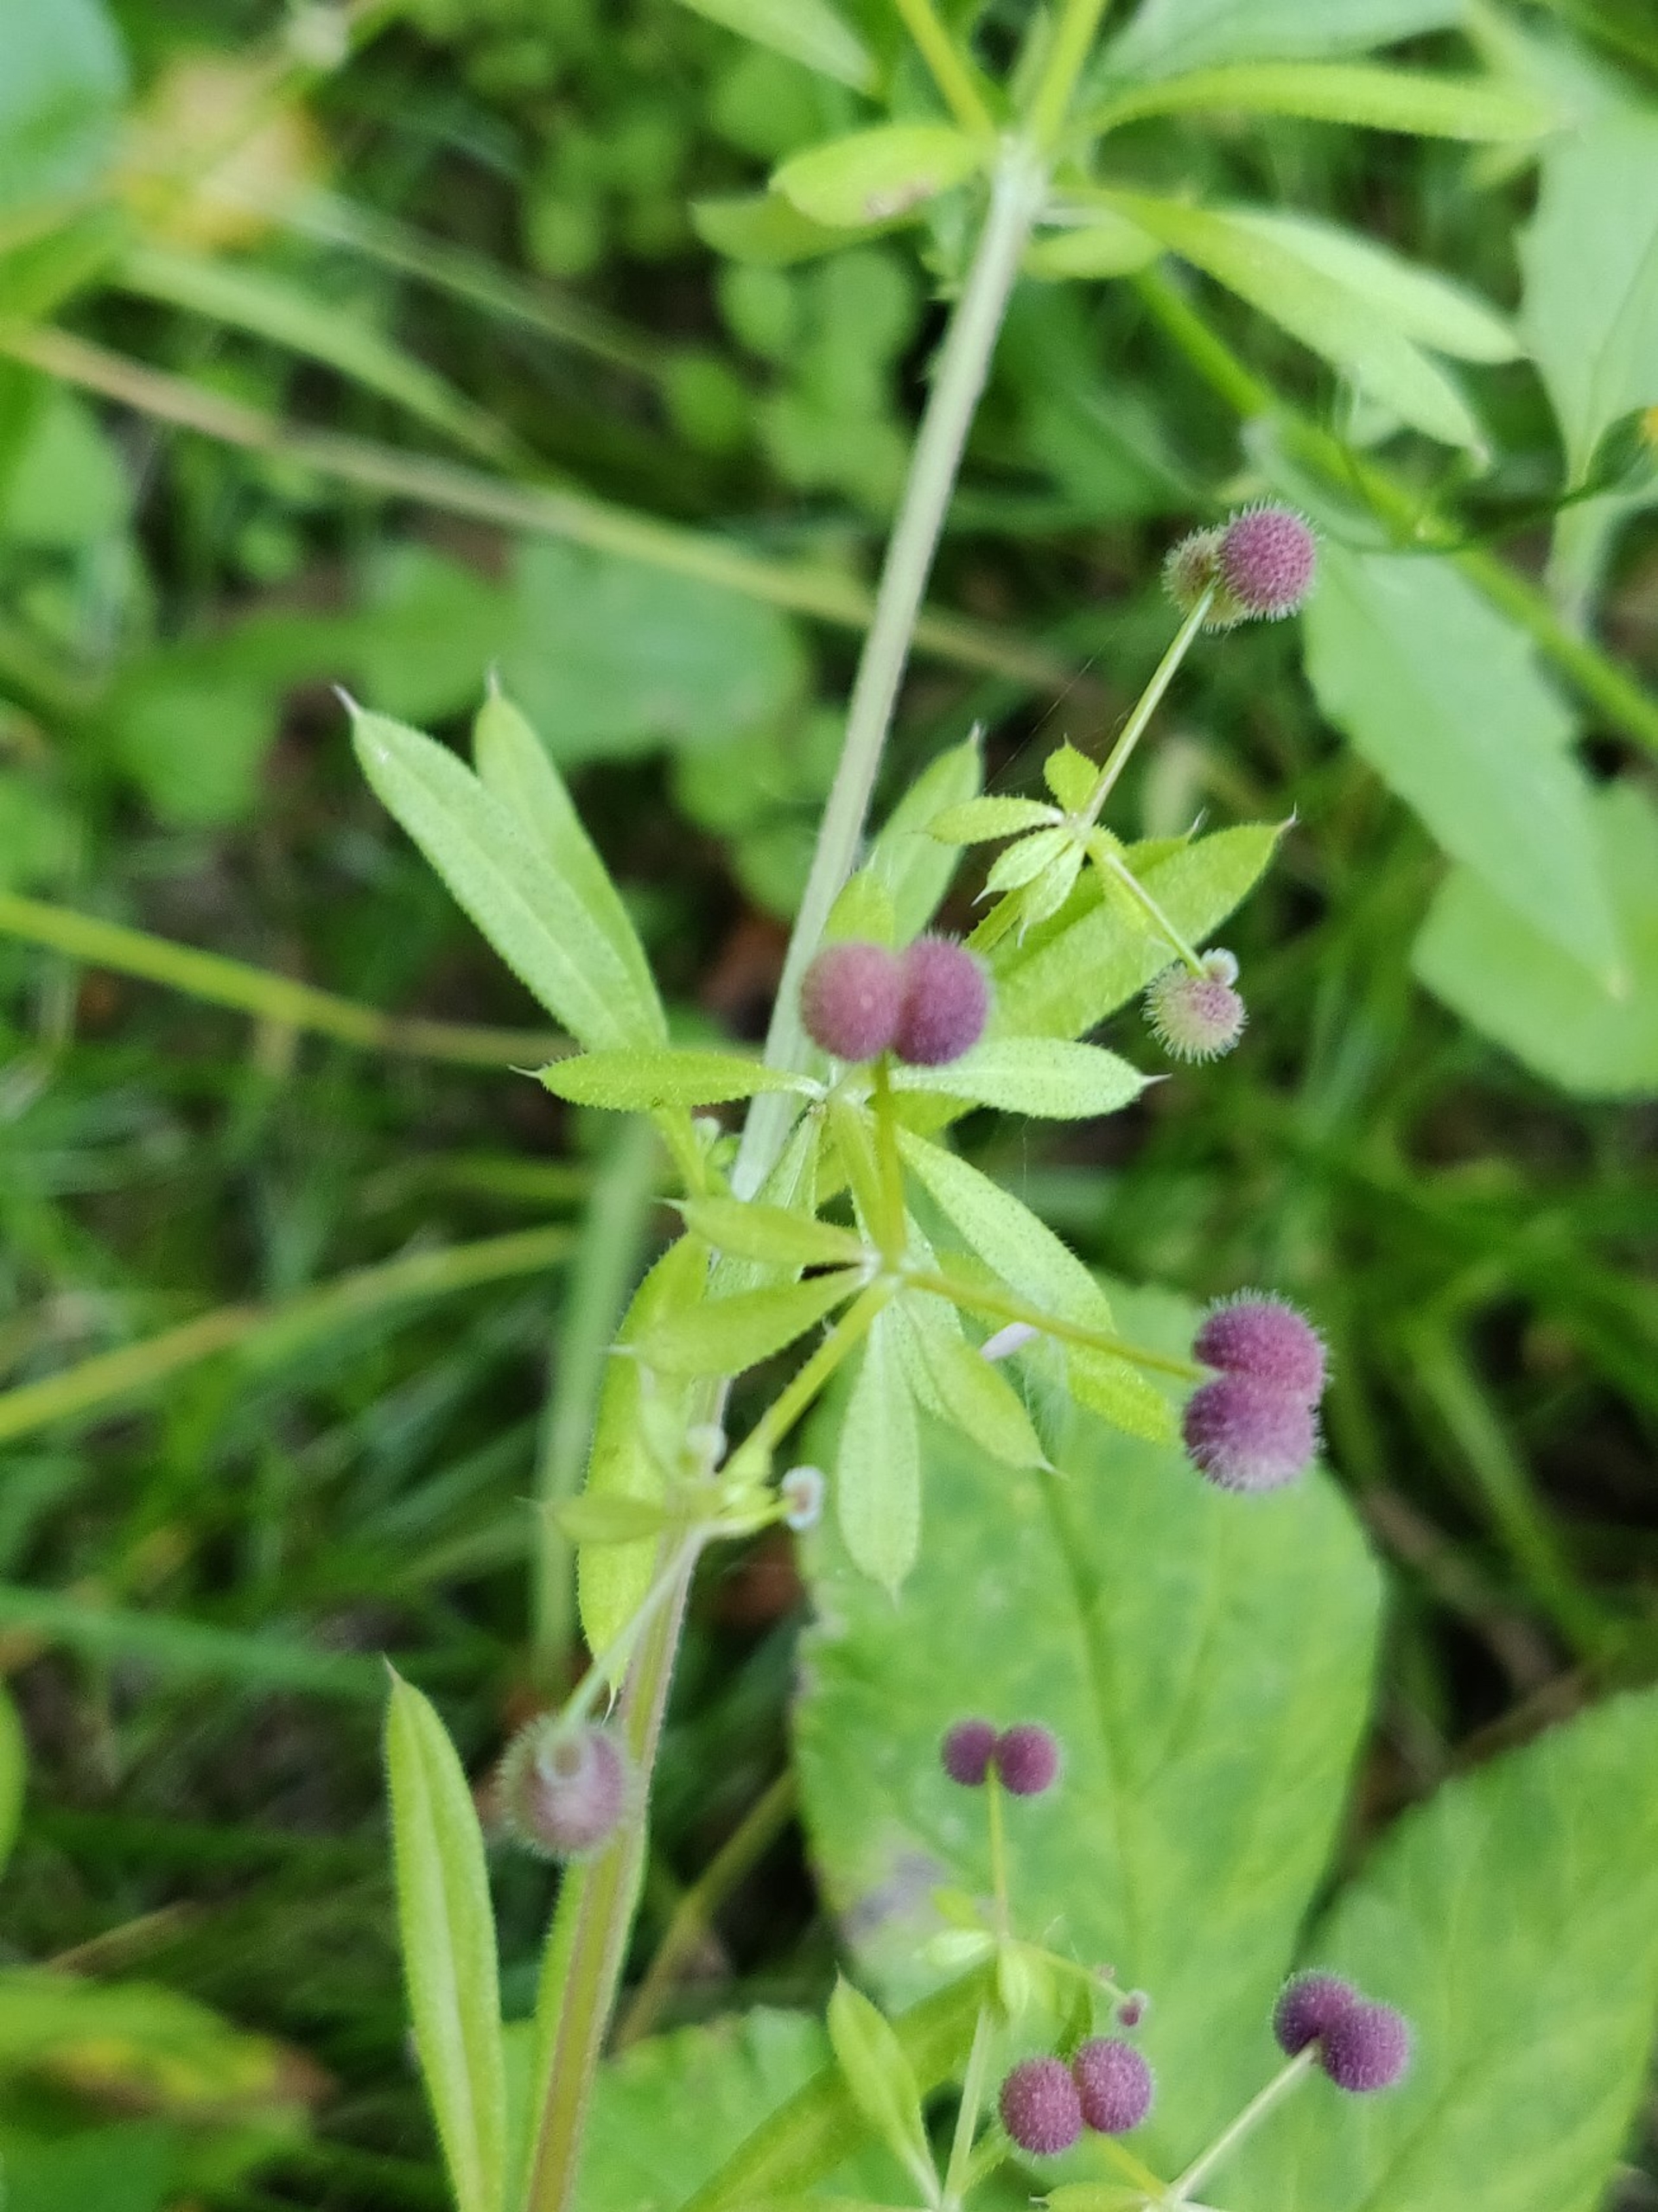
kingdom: Plantae
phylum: Tracheophyta
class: Magnoliopsida
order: Gentianales
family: Rubiaceae
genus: Galium
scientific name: Galium aparine
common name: Burre-snerre
